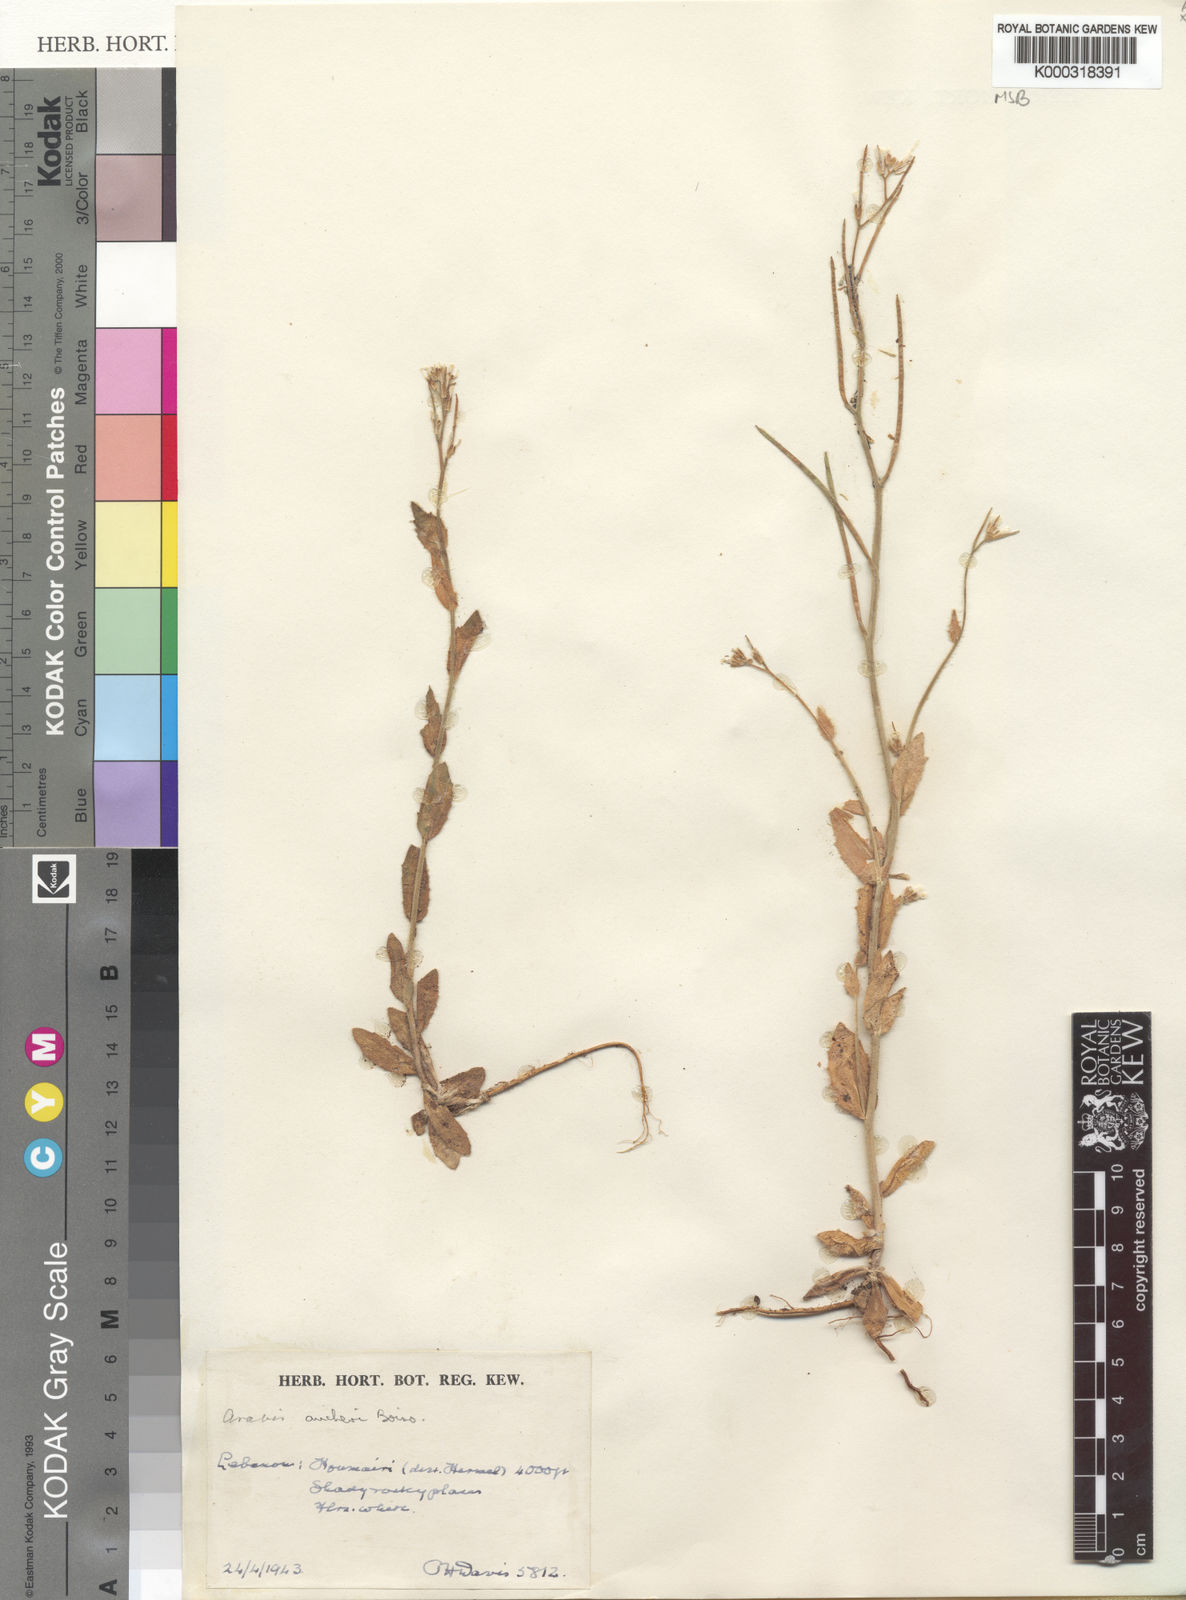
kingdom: Plantae
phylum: Tracheophyta
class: Magnoliopsida
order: Brassicales
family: Brassicaceae
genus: Arabis
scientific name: Arabis aucheri
